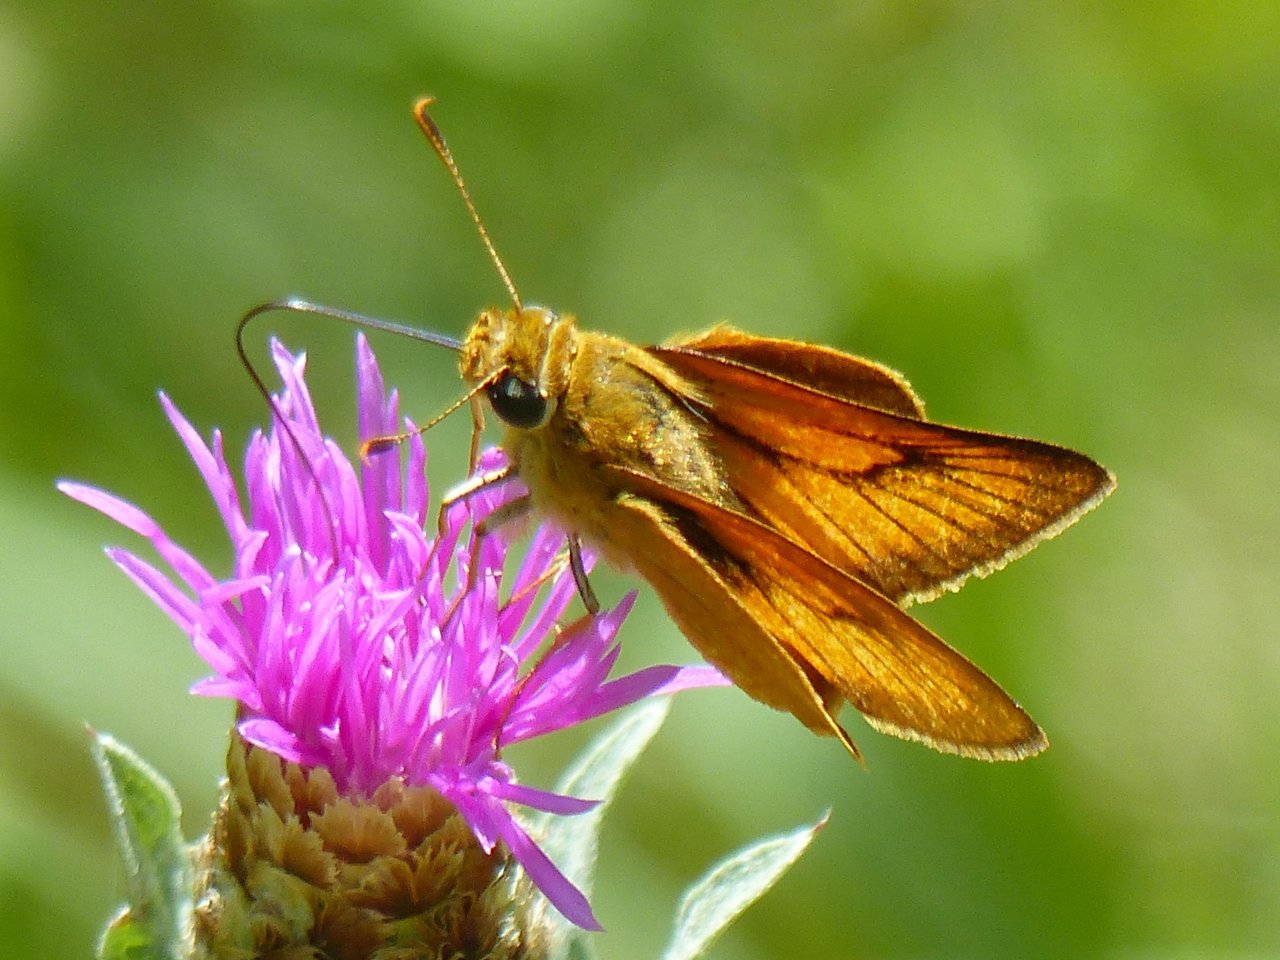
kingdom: Animalia
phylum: Arthropoda
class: Insecta
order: Lepidoptera
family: Hesperiidae
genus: Atrytone
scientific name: Atrytone delaware
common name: Delaware Skipper
